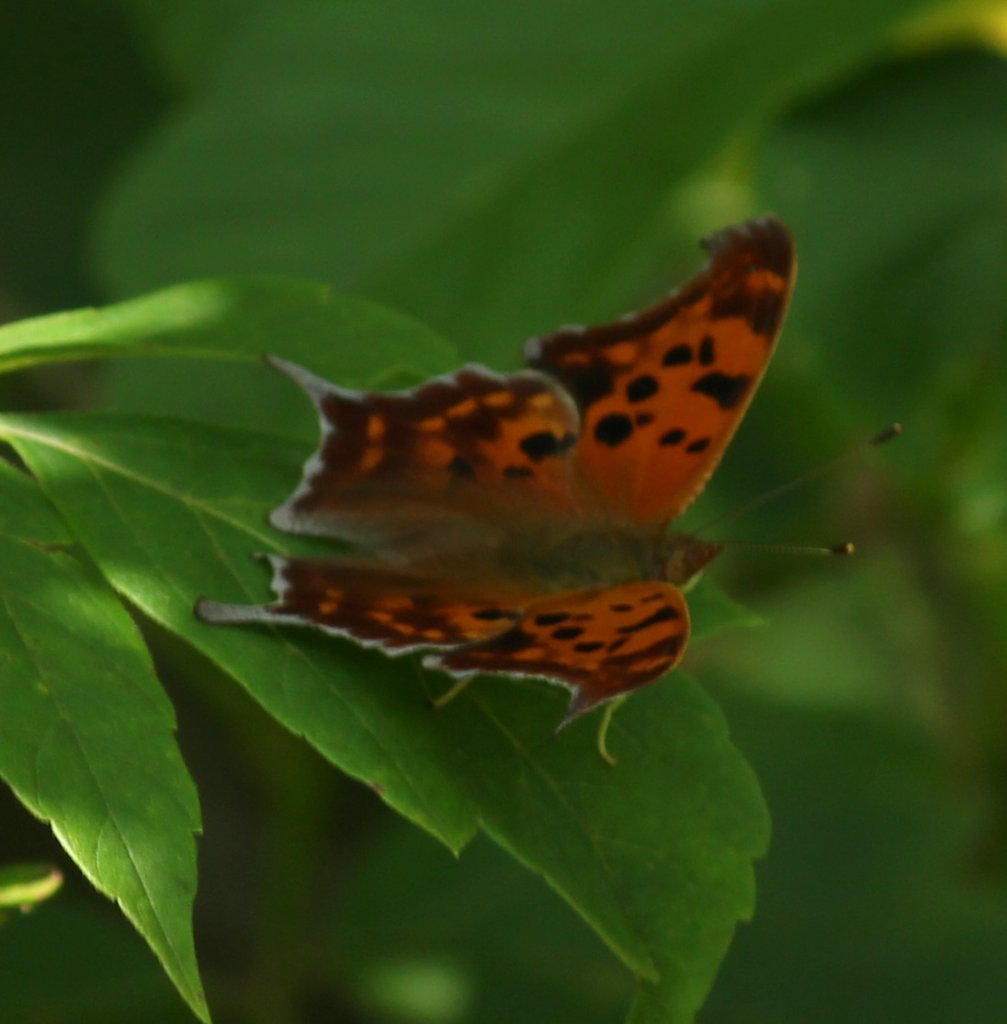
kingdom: Animalia
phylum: Arthropoda
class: Insecta
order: Lepidoptera
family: Nymphalidae
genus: Polygonia
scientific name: Polygonia interrogationis
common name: Question Mark
